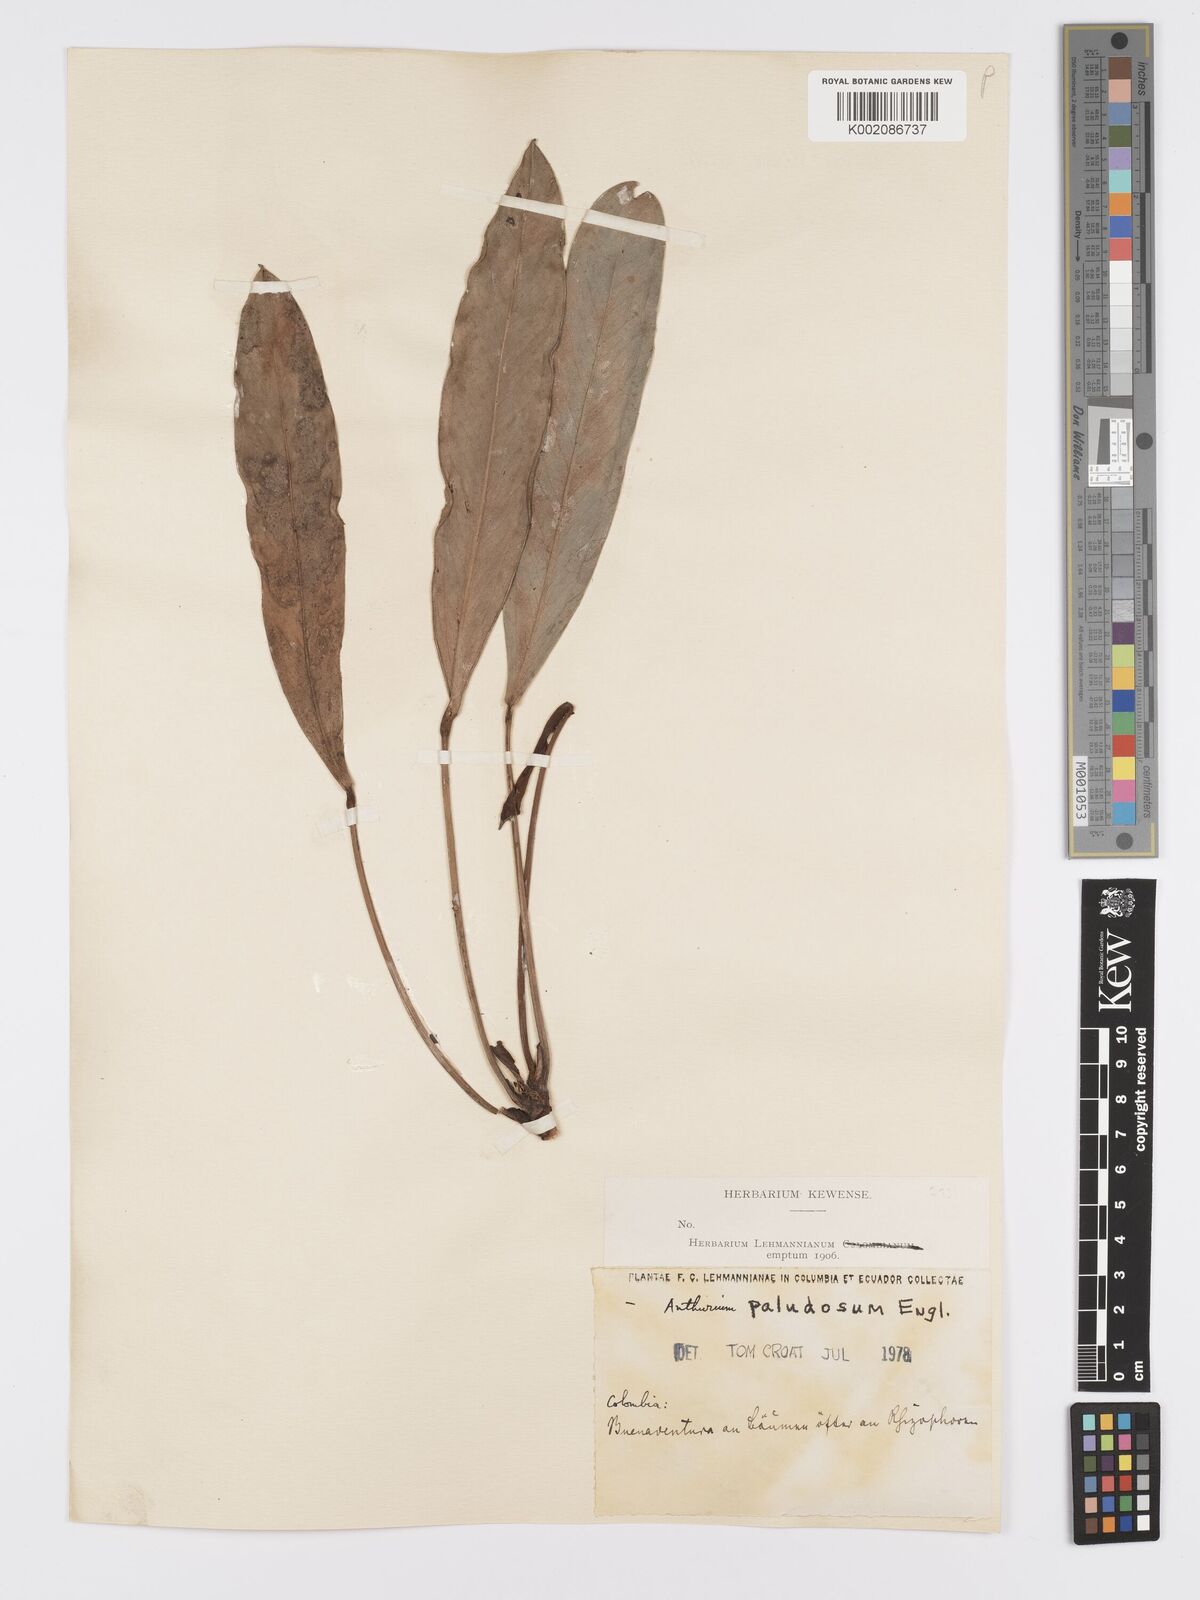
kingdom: Plantae
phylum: Tracheophyta
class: Liliopsida
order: Alismatales
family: Araceae
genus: Anthurium
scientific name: Anthurium paludosum
